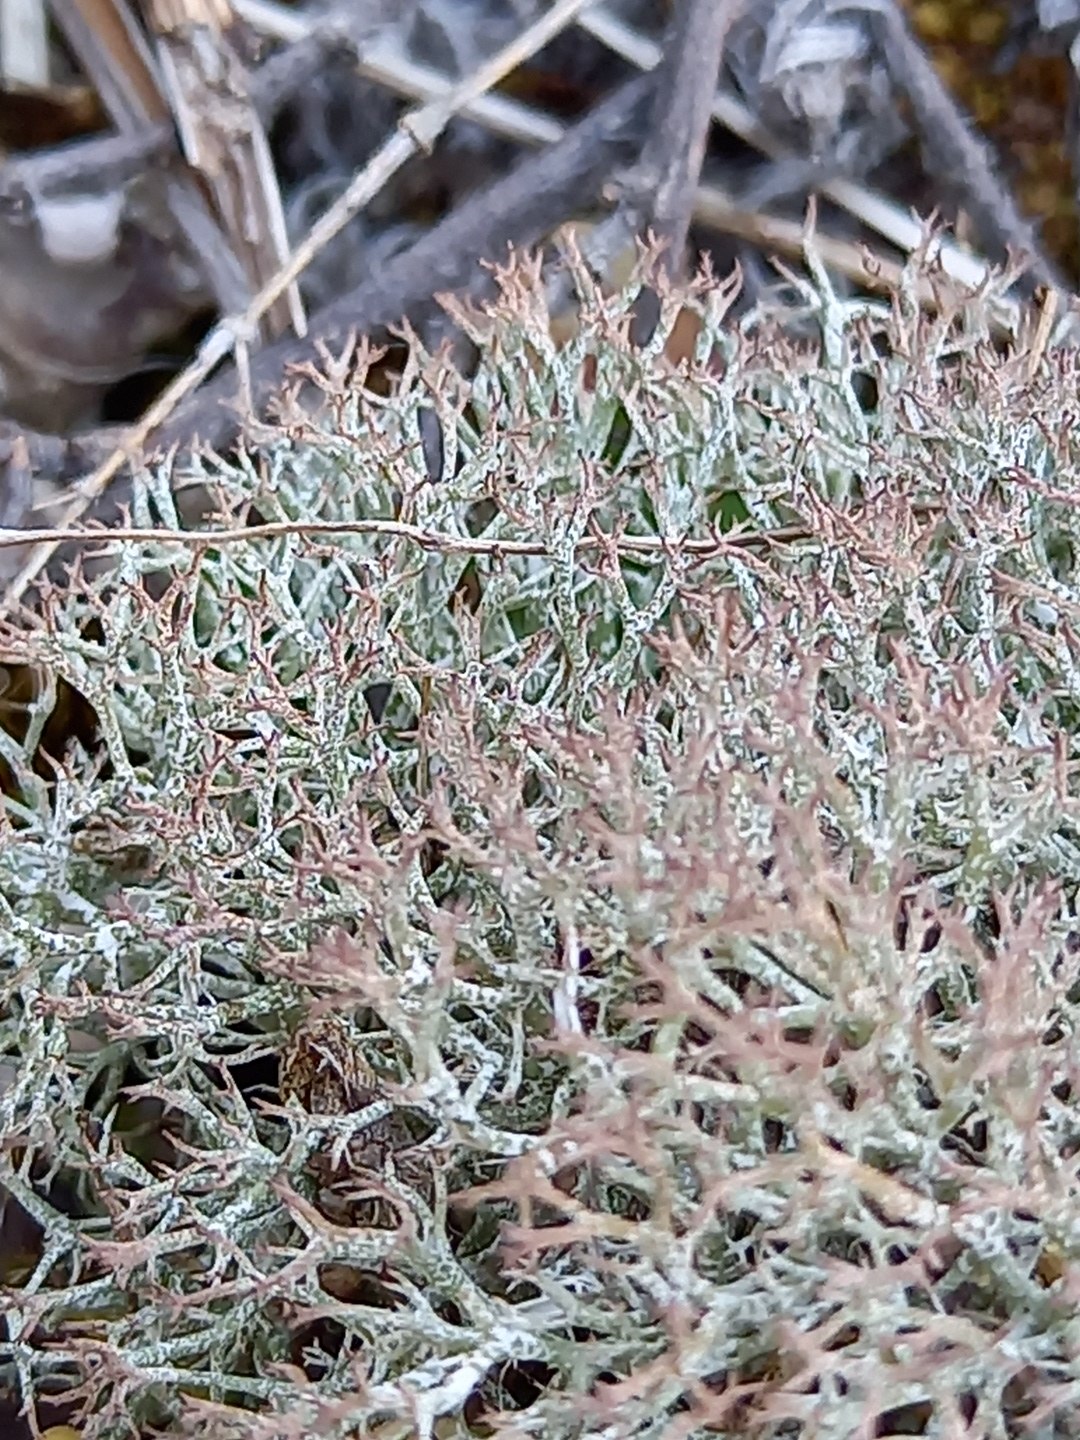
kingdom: Fungi
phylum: Ascomycota
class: Lecanoromycetes
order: Lecanorales
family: Cladoniaceae
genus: Cladonia
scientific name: Cladonia rangiformis
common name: spættet bægerlav
